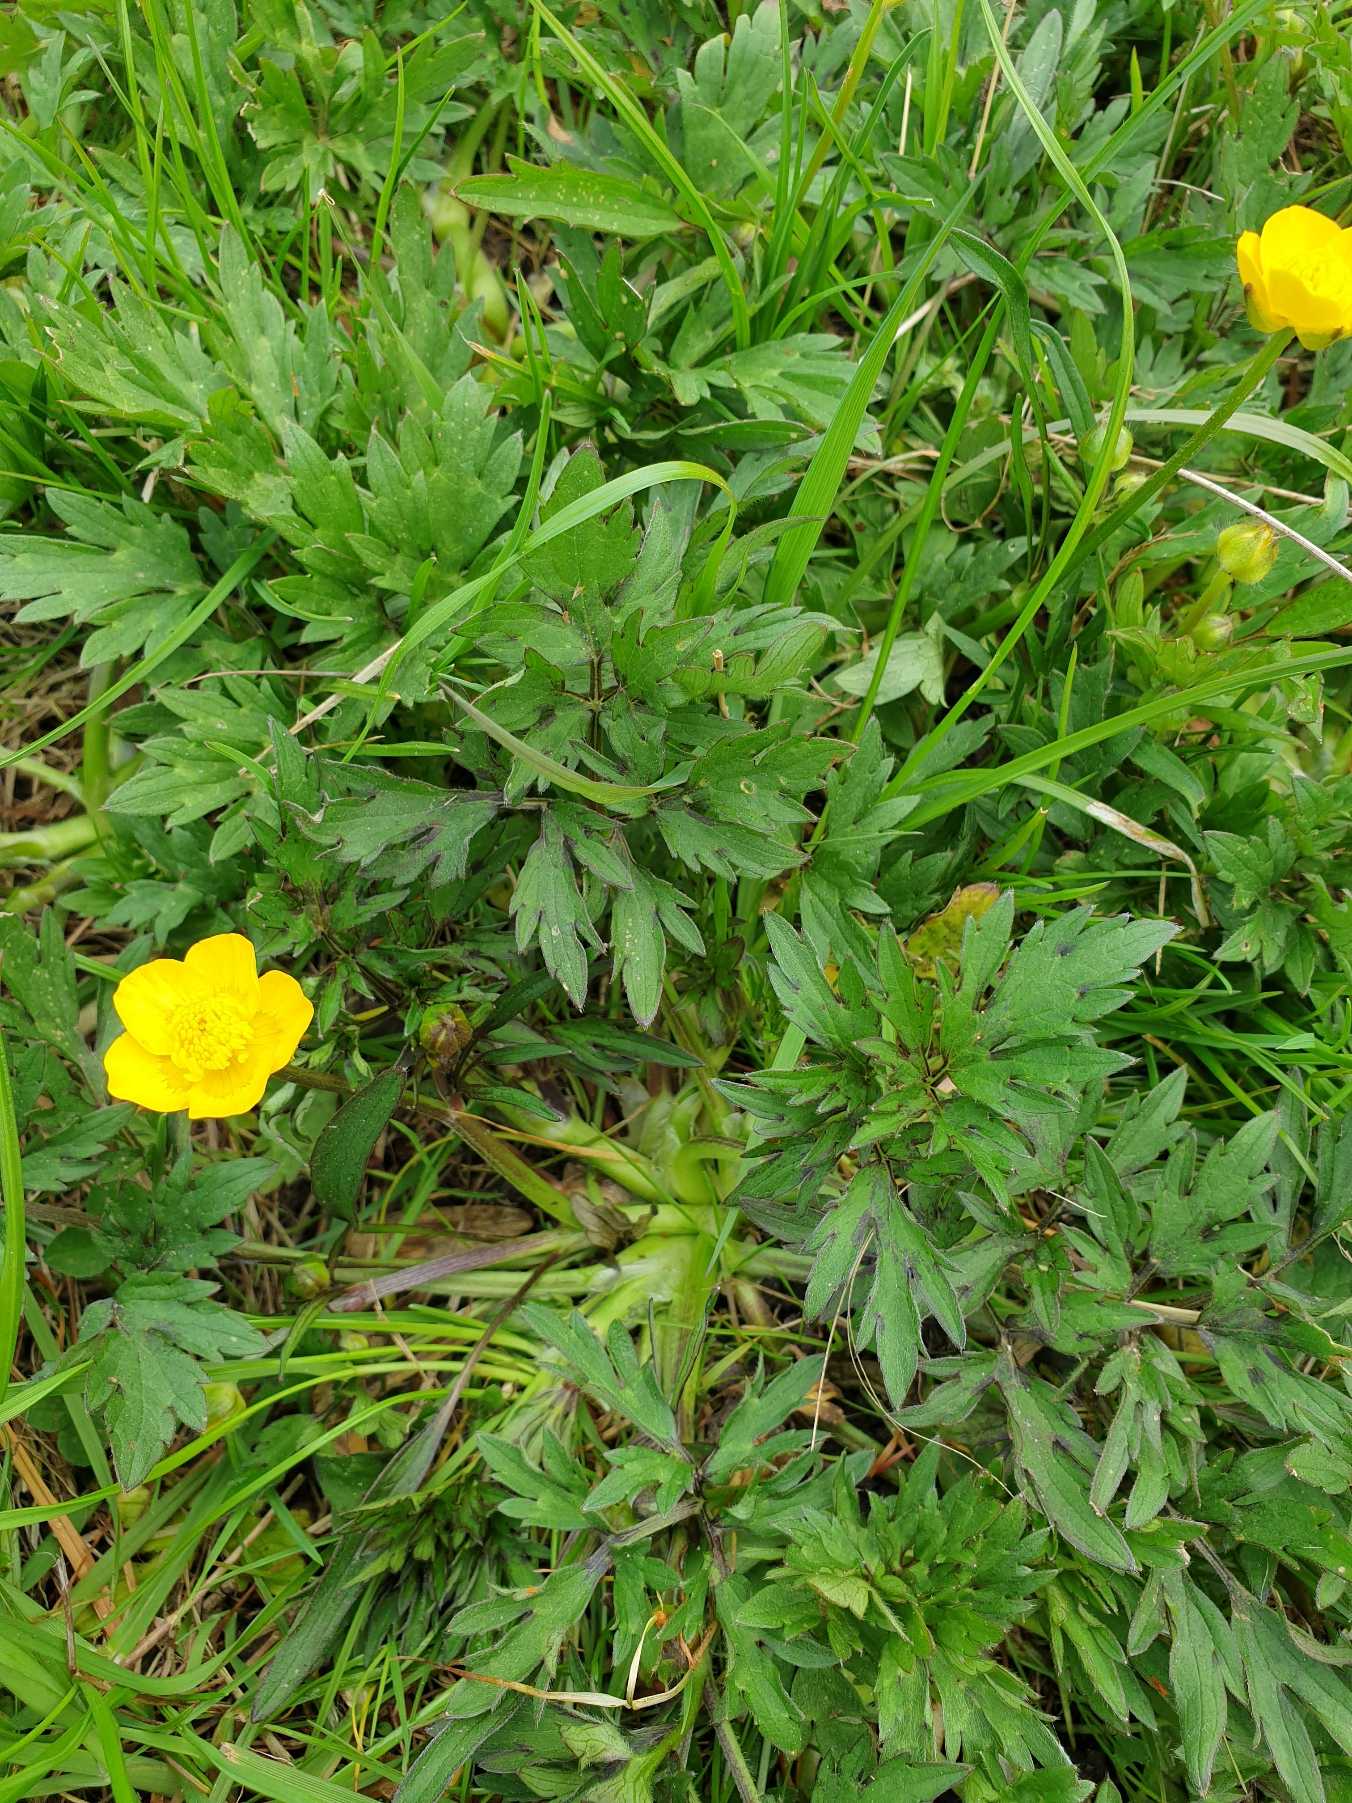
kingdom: Plantae
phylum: Tracheophyta
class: Magnoliopsida
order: Ranunculales
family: Ranunculaceae
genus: Ranunculus
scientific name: Ranunculus repens
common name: Lav ranunkel
